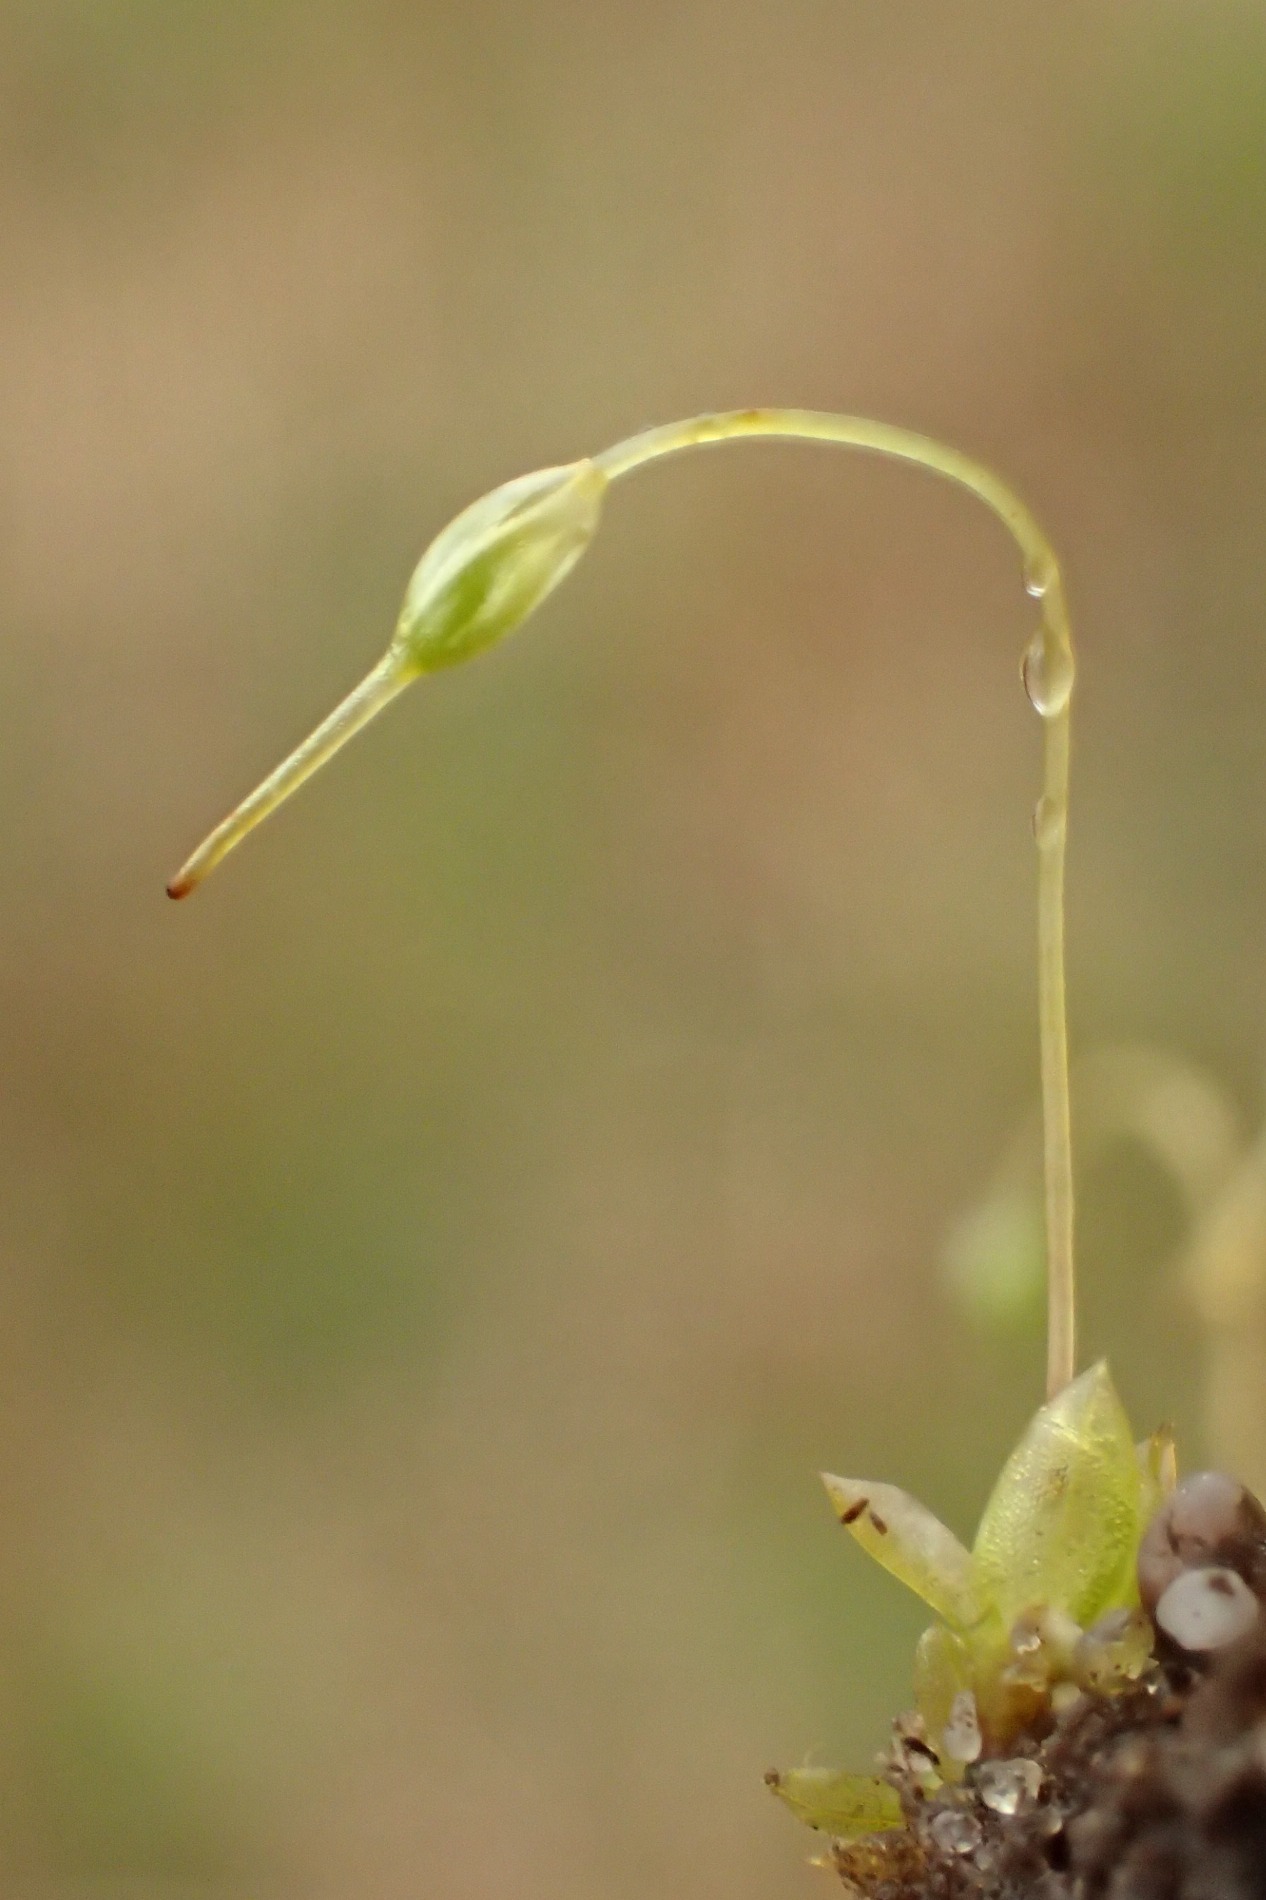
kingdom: Plantae
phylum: Bryophyta
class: Bryopsida
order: Funariales
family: Funariaceae
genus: Funaria
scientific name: Funaria hygrometrica
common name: Almindelig snobørste
